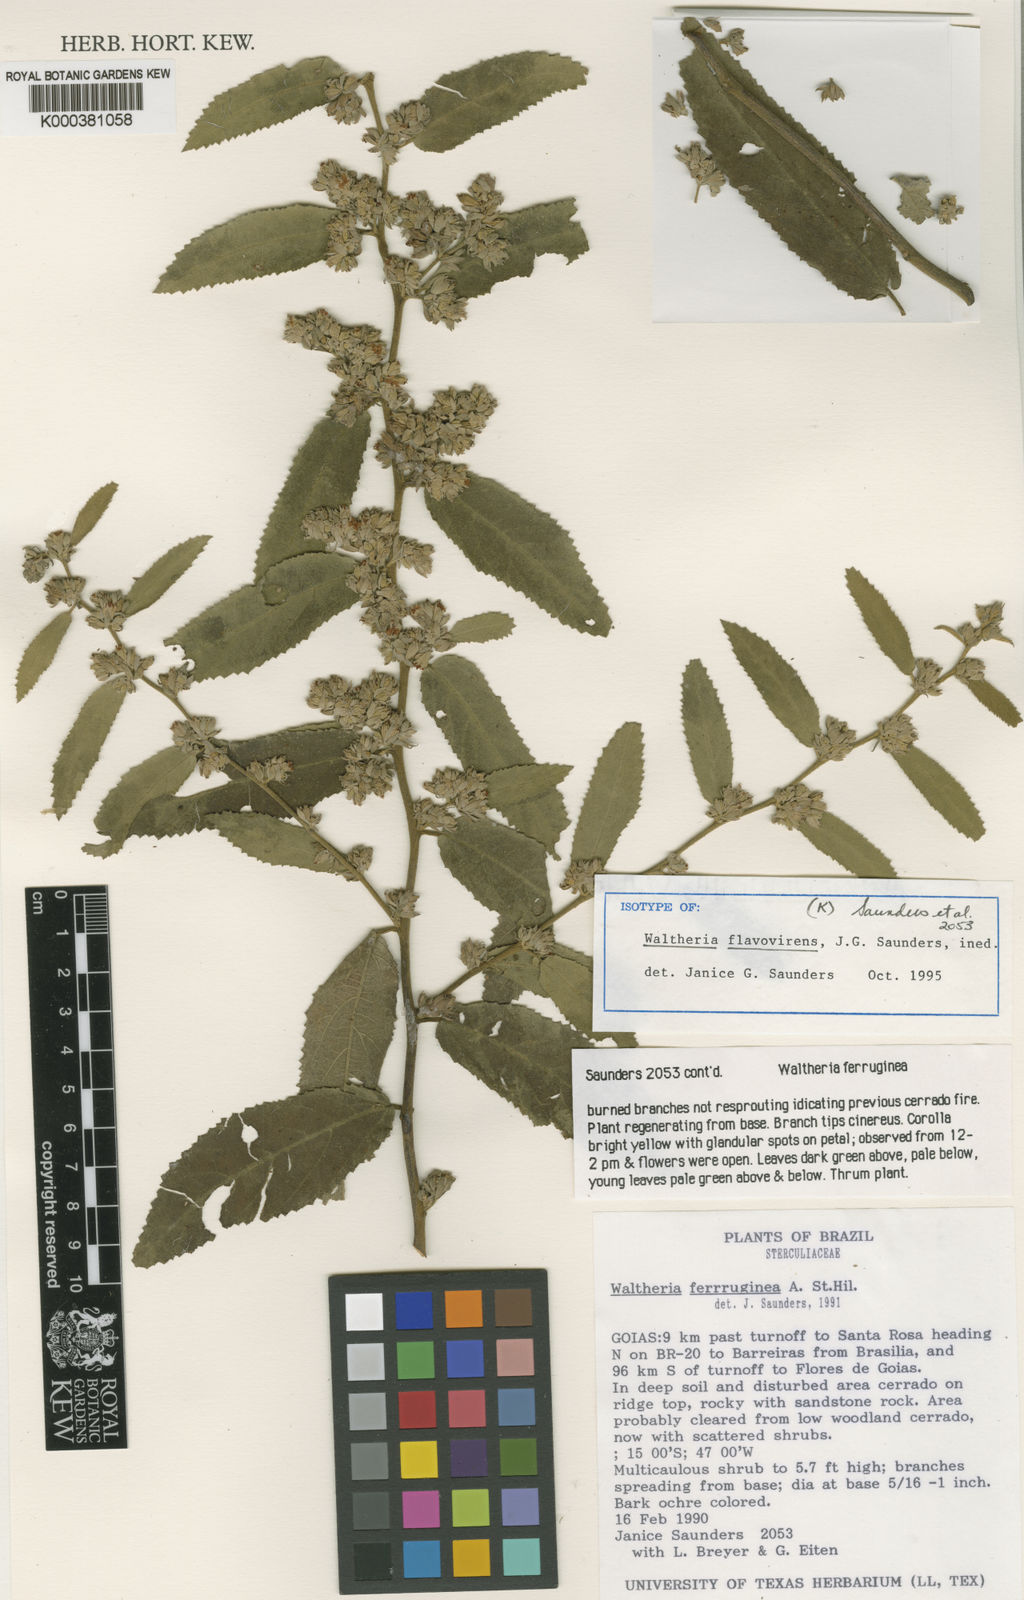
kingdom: Plantae
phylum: Tracheophyta
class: Magnoliopsida
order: Malvales
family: Malvaceae
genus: Waltheria
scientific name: Waltheria
